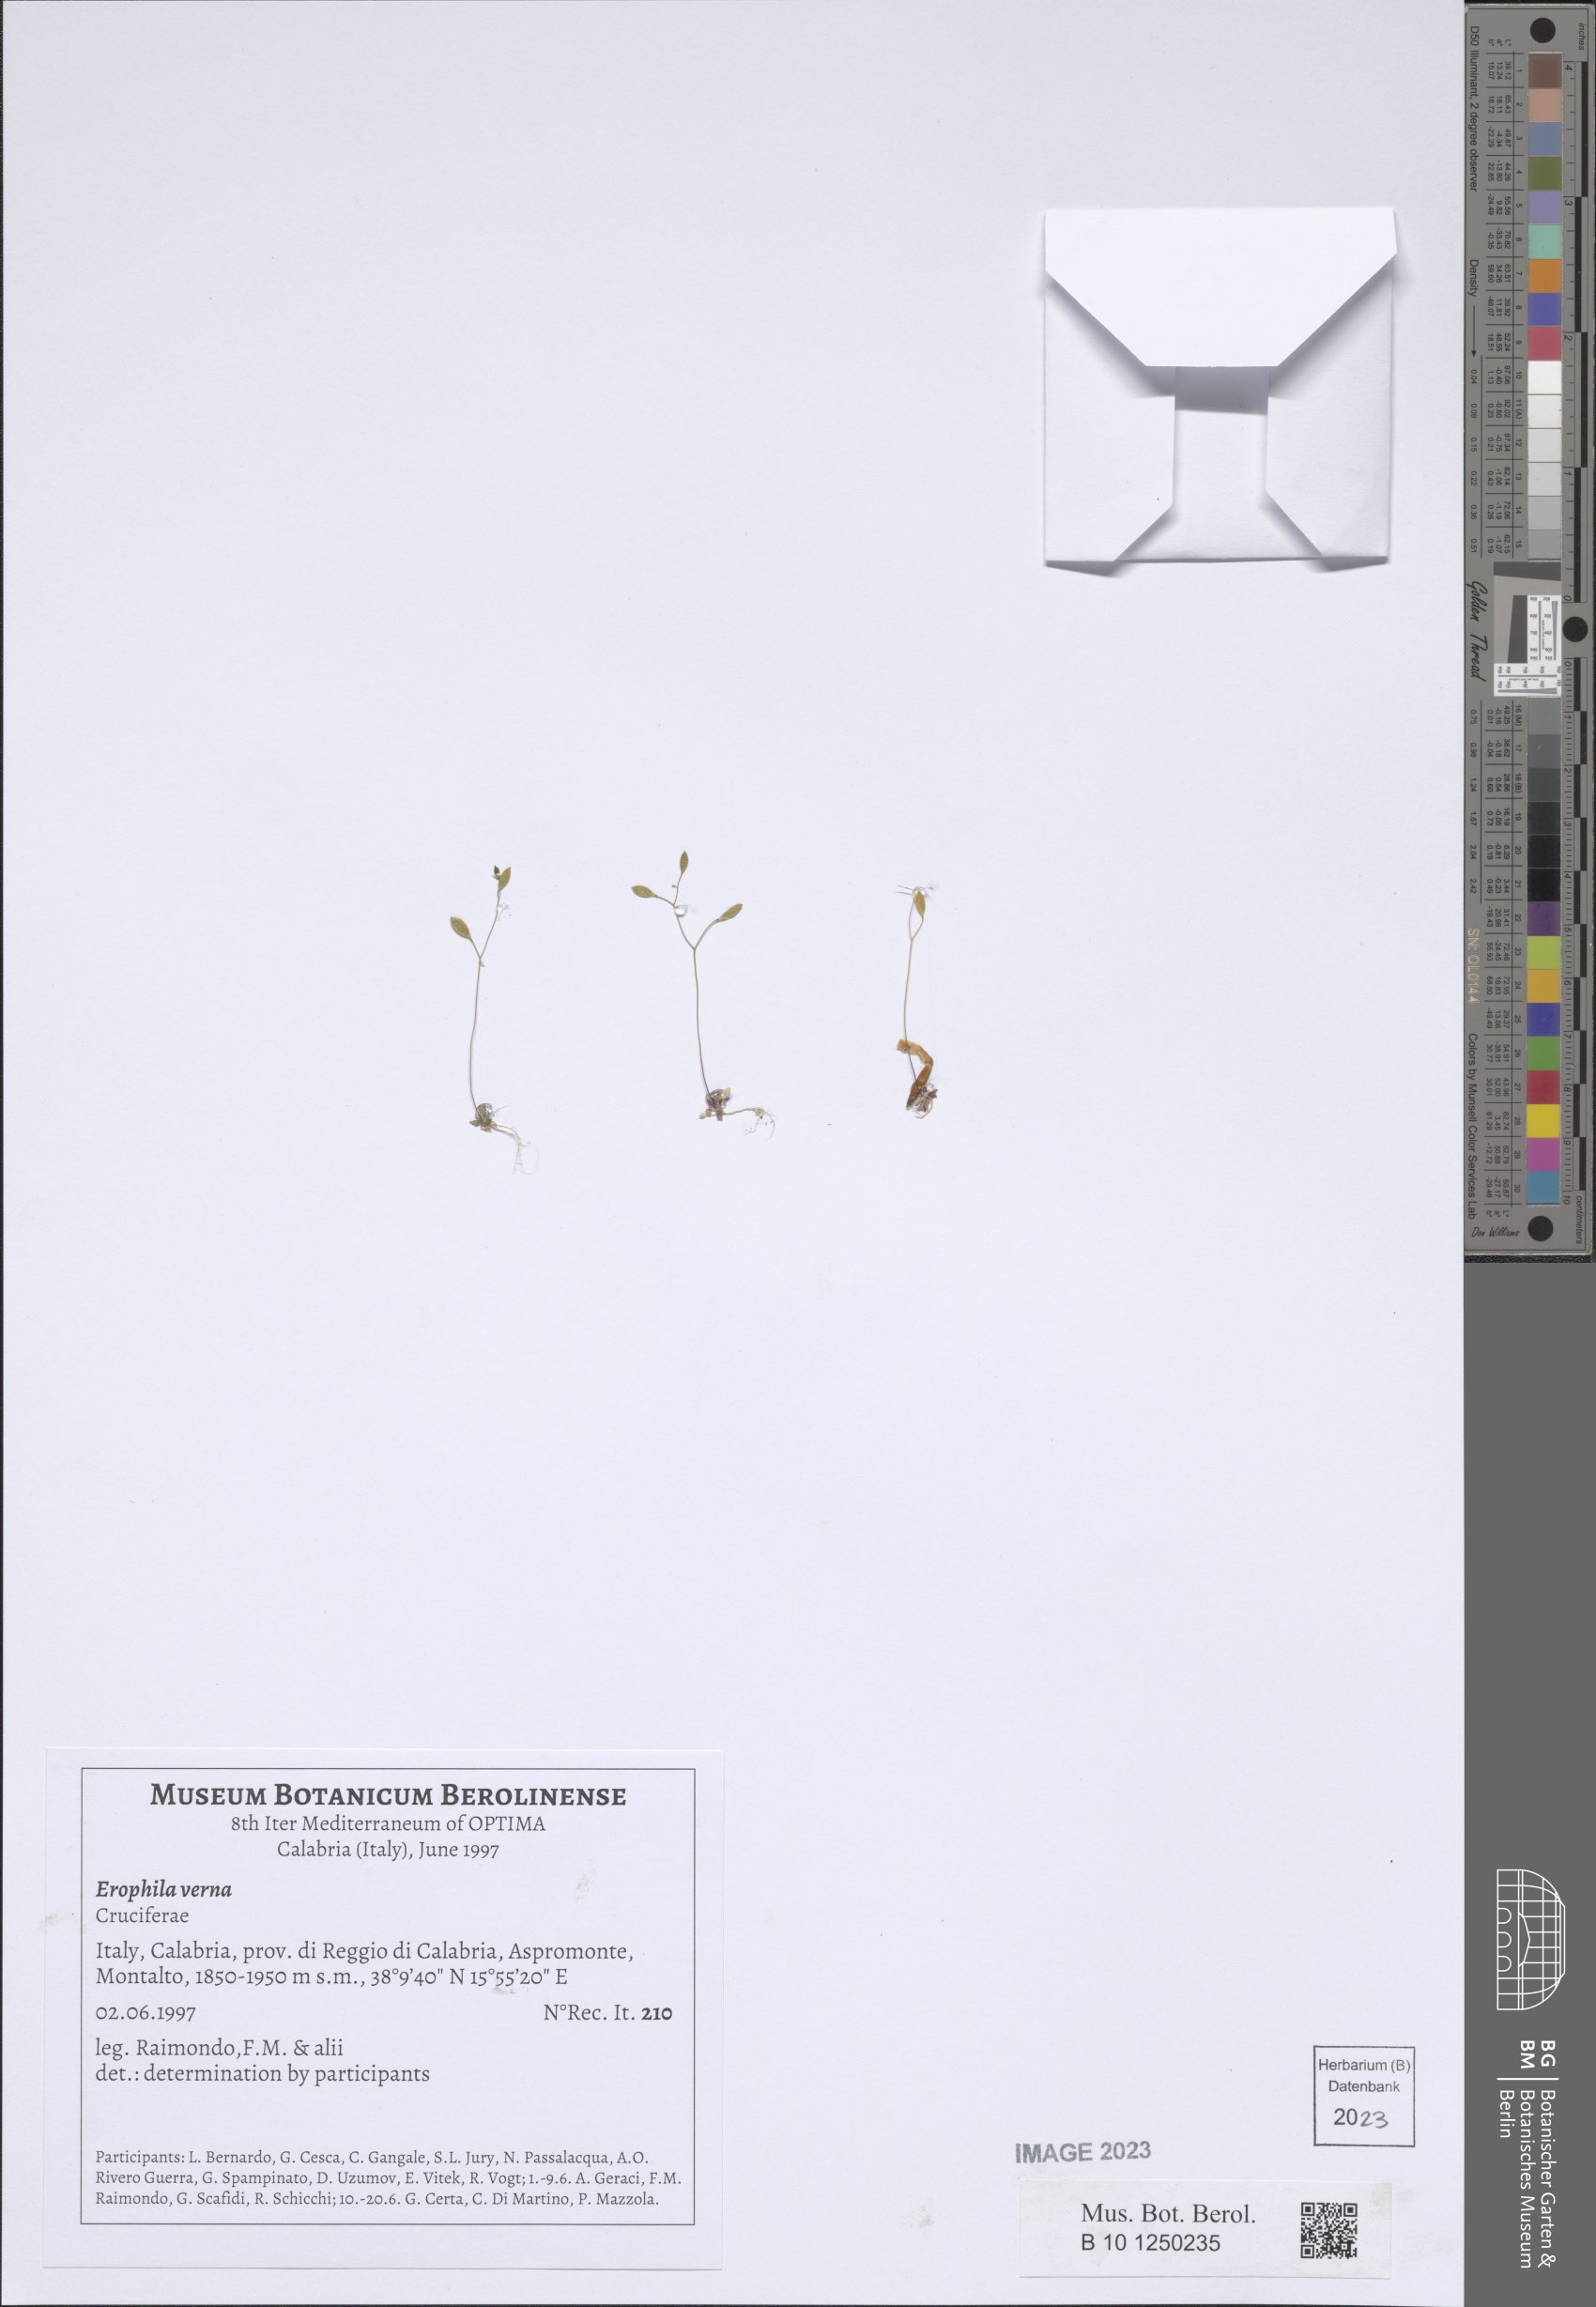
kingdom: Plantae
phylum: Tracheophyta
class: Magnoliopsida
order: Brassicales
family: Brassicaceae
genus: Draba
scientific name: Draba verna
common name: Spring draba
